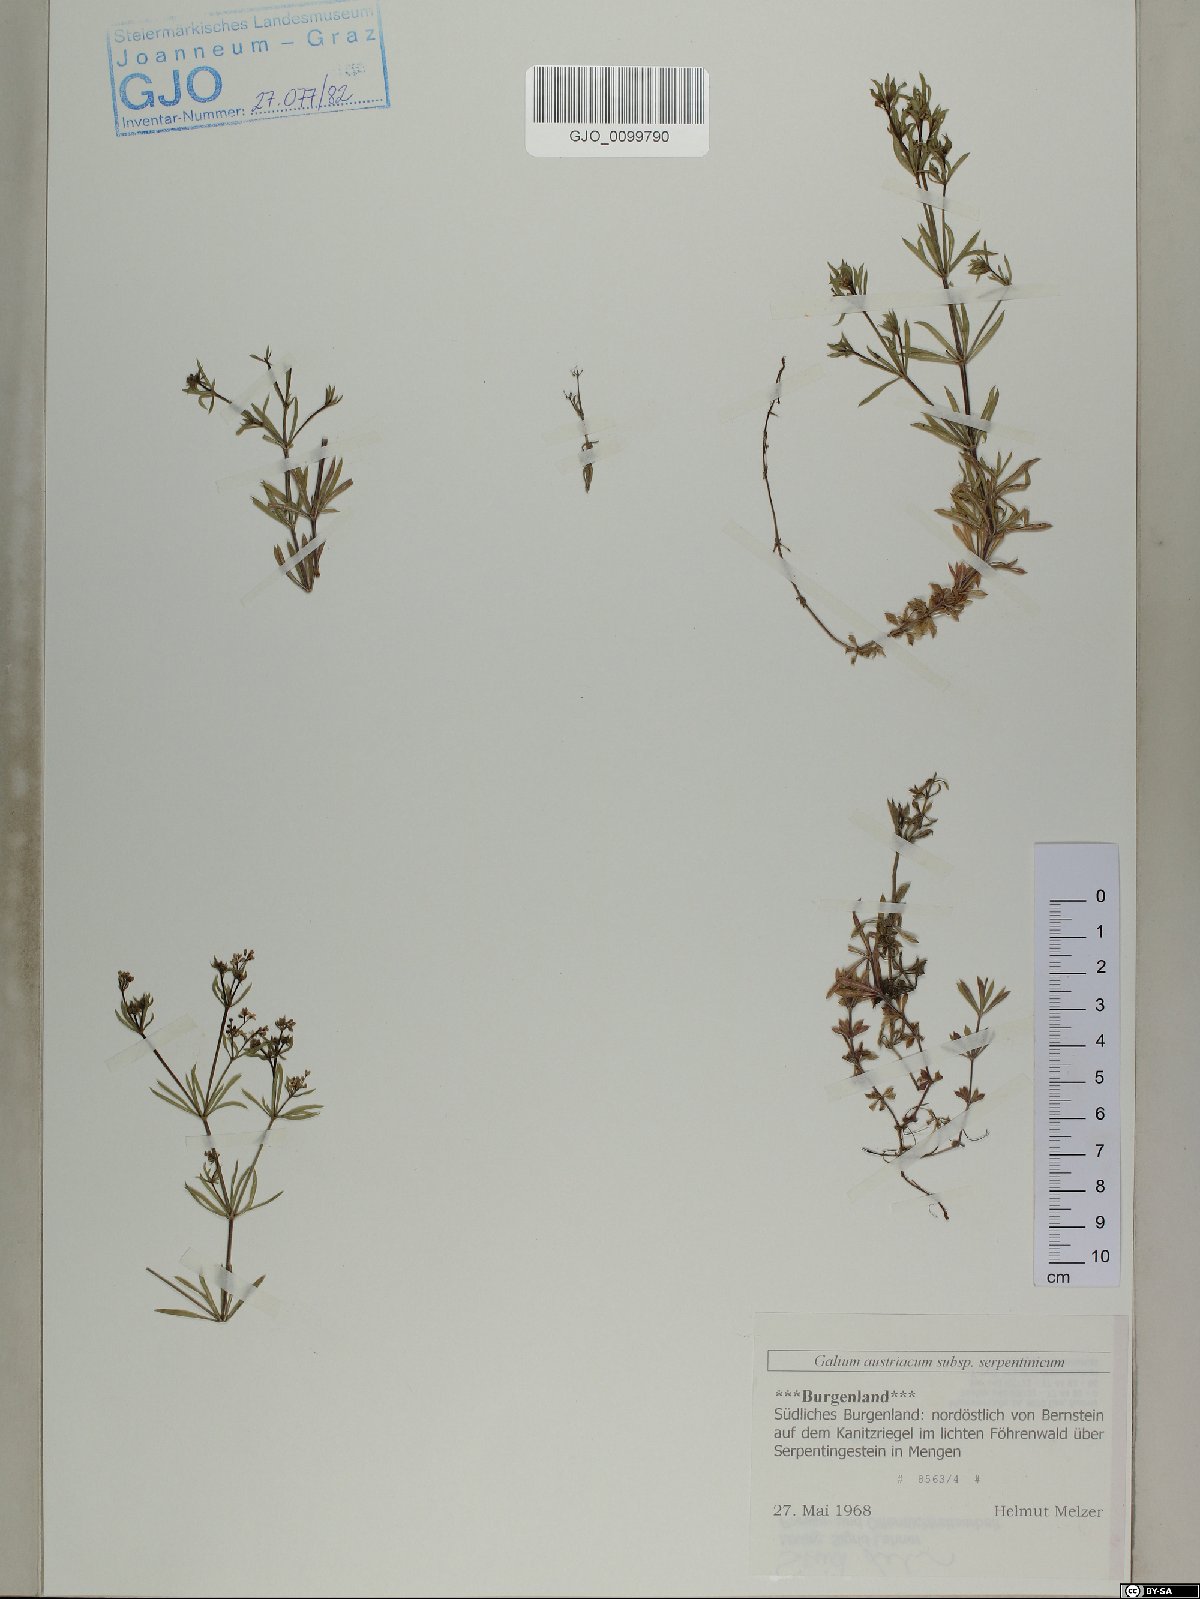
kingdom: Plantae
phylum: Tracheophyta
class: Magnoliopsida
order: Gentianales
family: Rubiaceae
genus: Galium
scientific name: Galium austriacum
